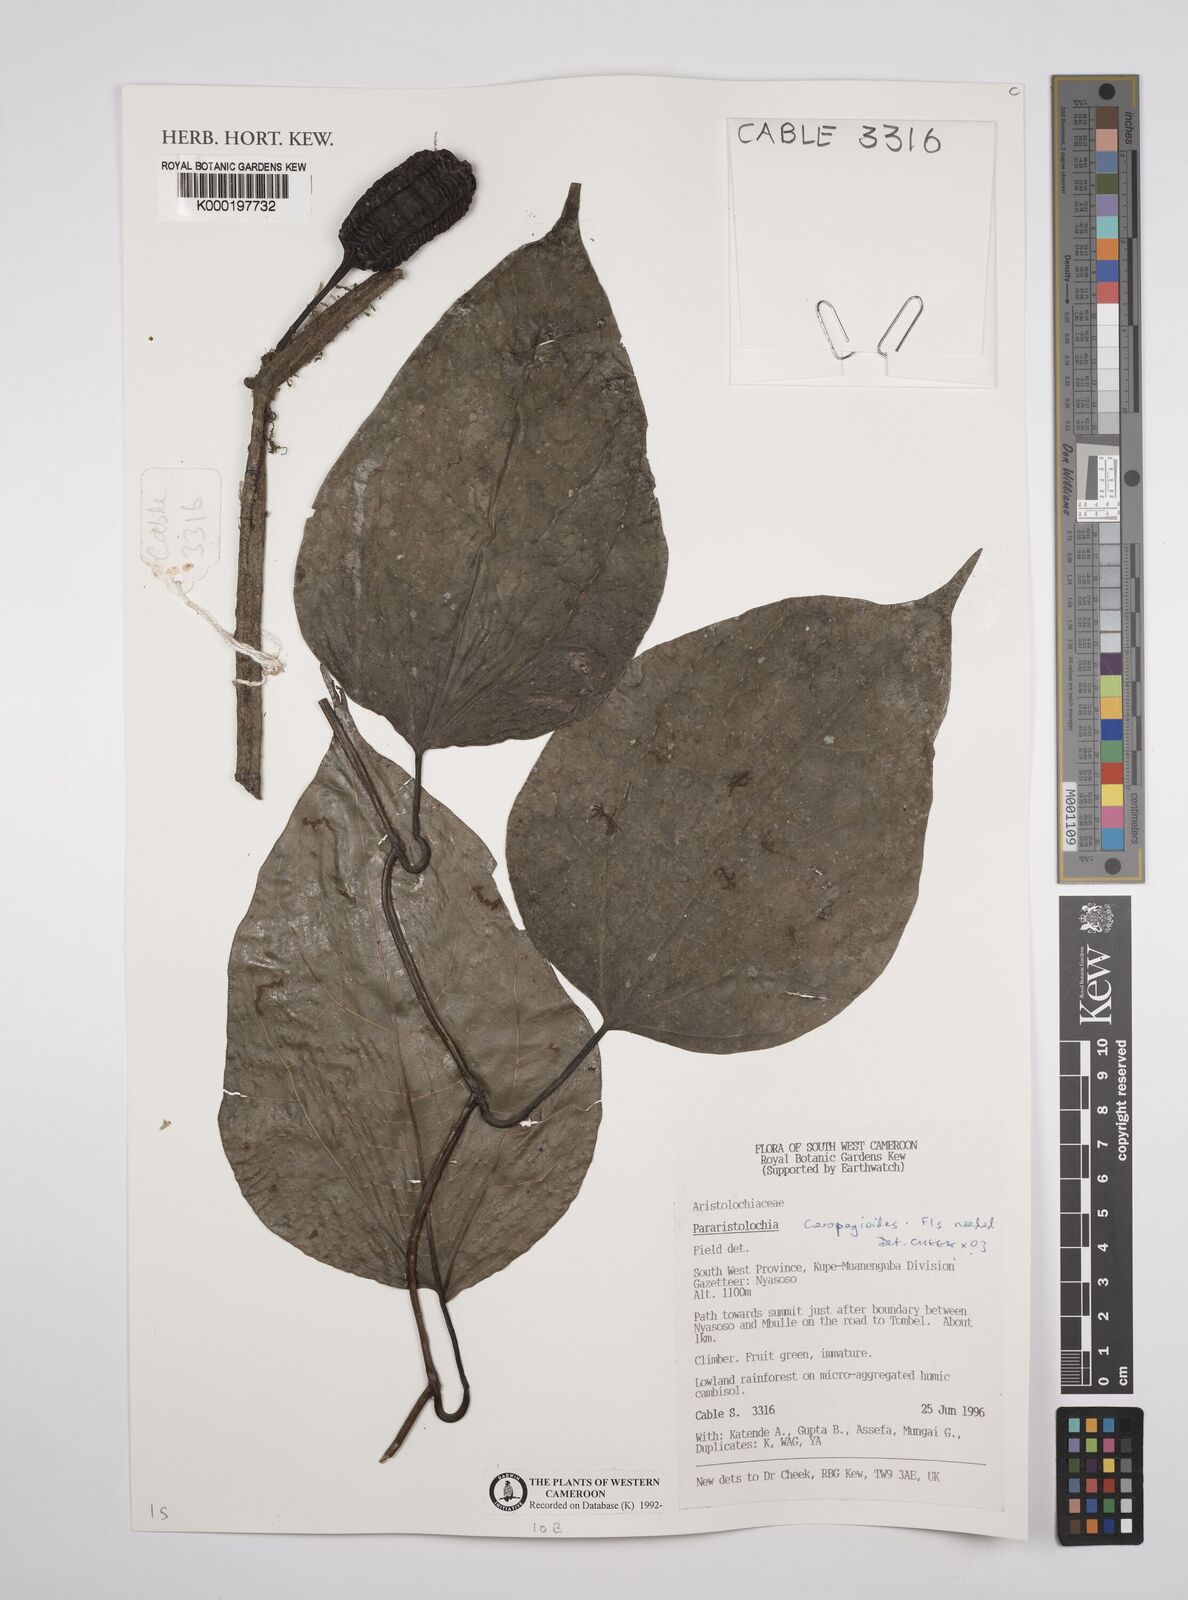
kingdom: Plantae
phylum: Tracheophyta
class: Magnoliopsida
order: Piperales
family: Aristolochiaceae
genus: Aristolochia
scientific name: Aristolochia ceropegioides
